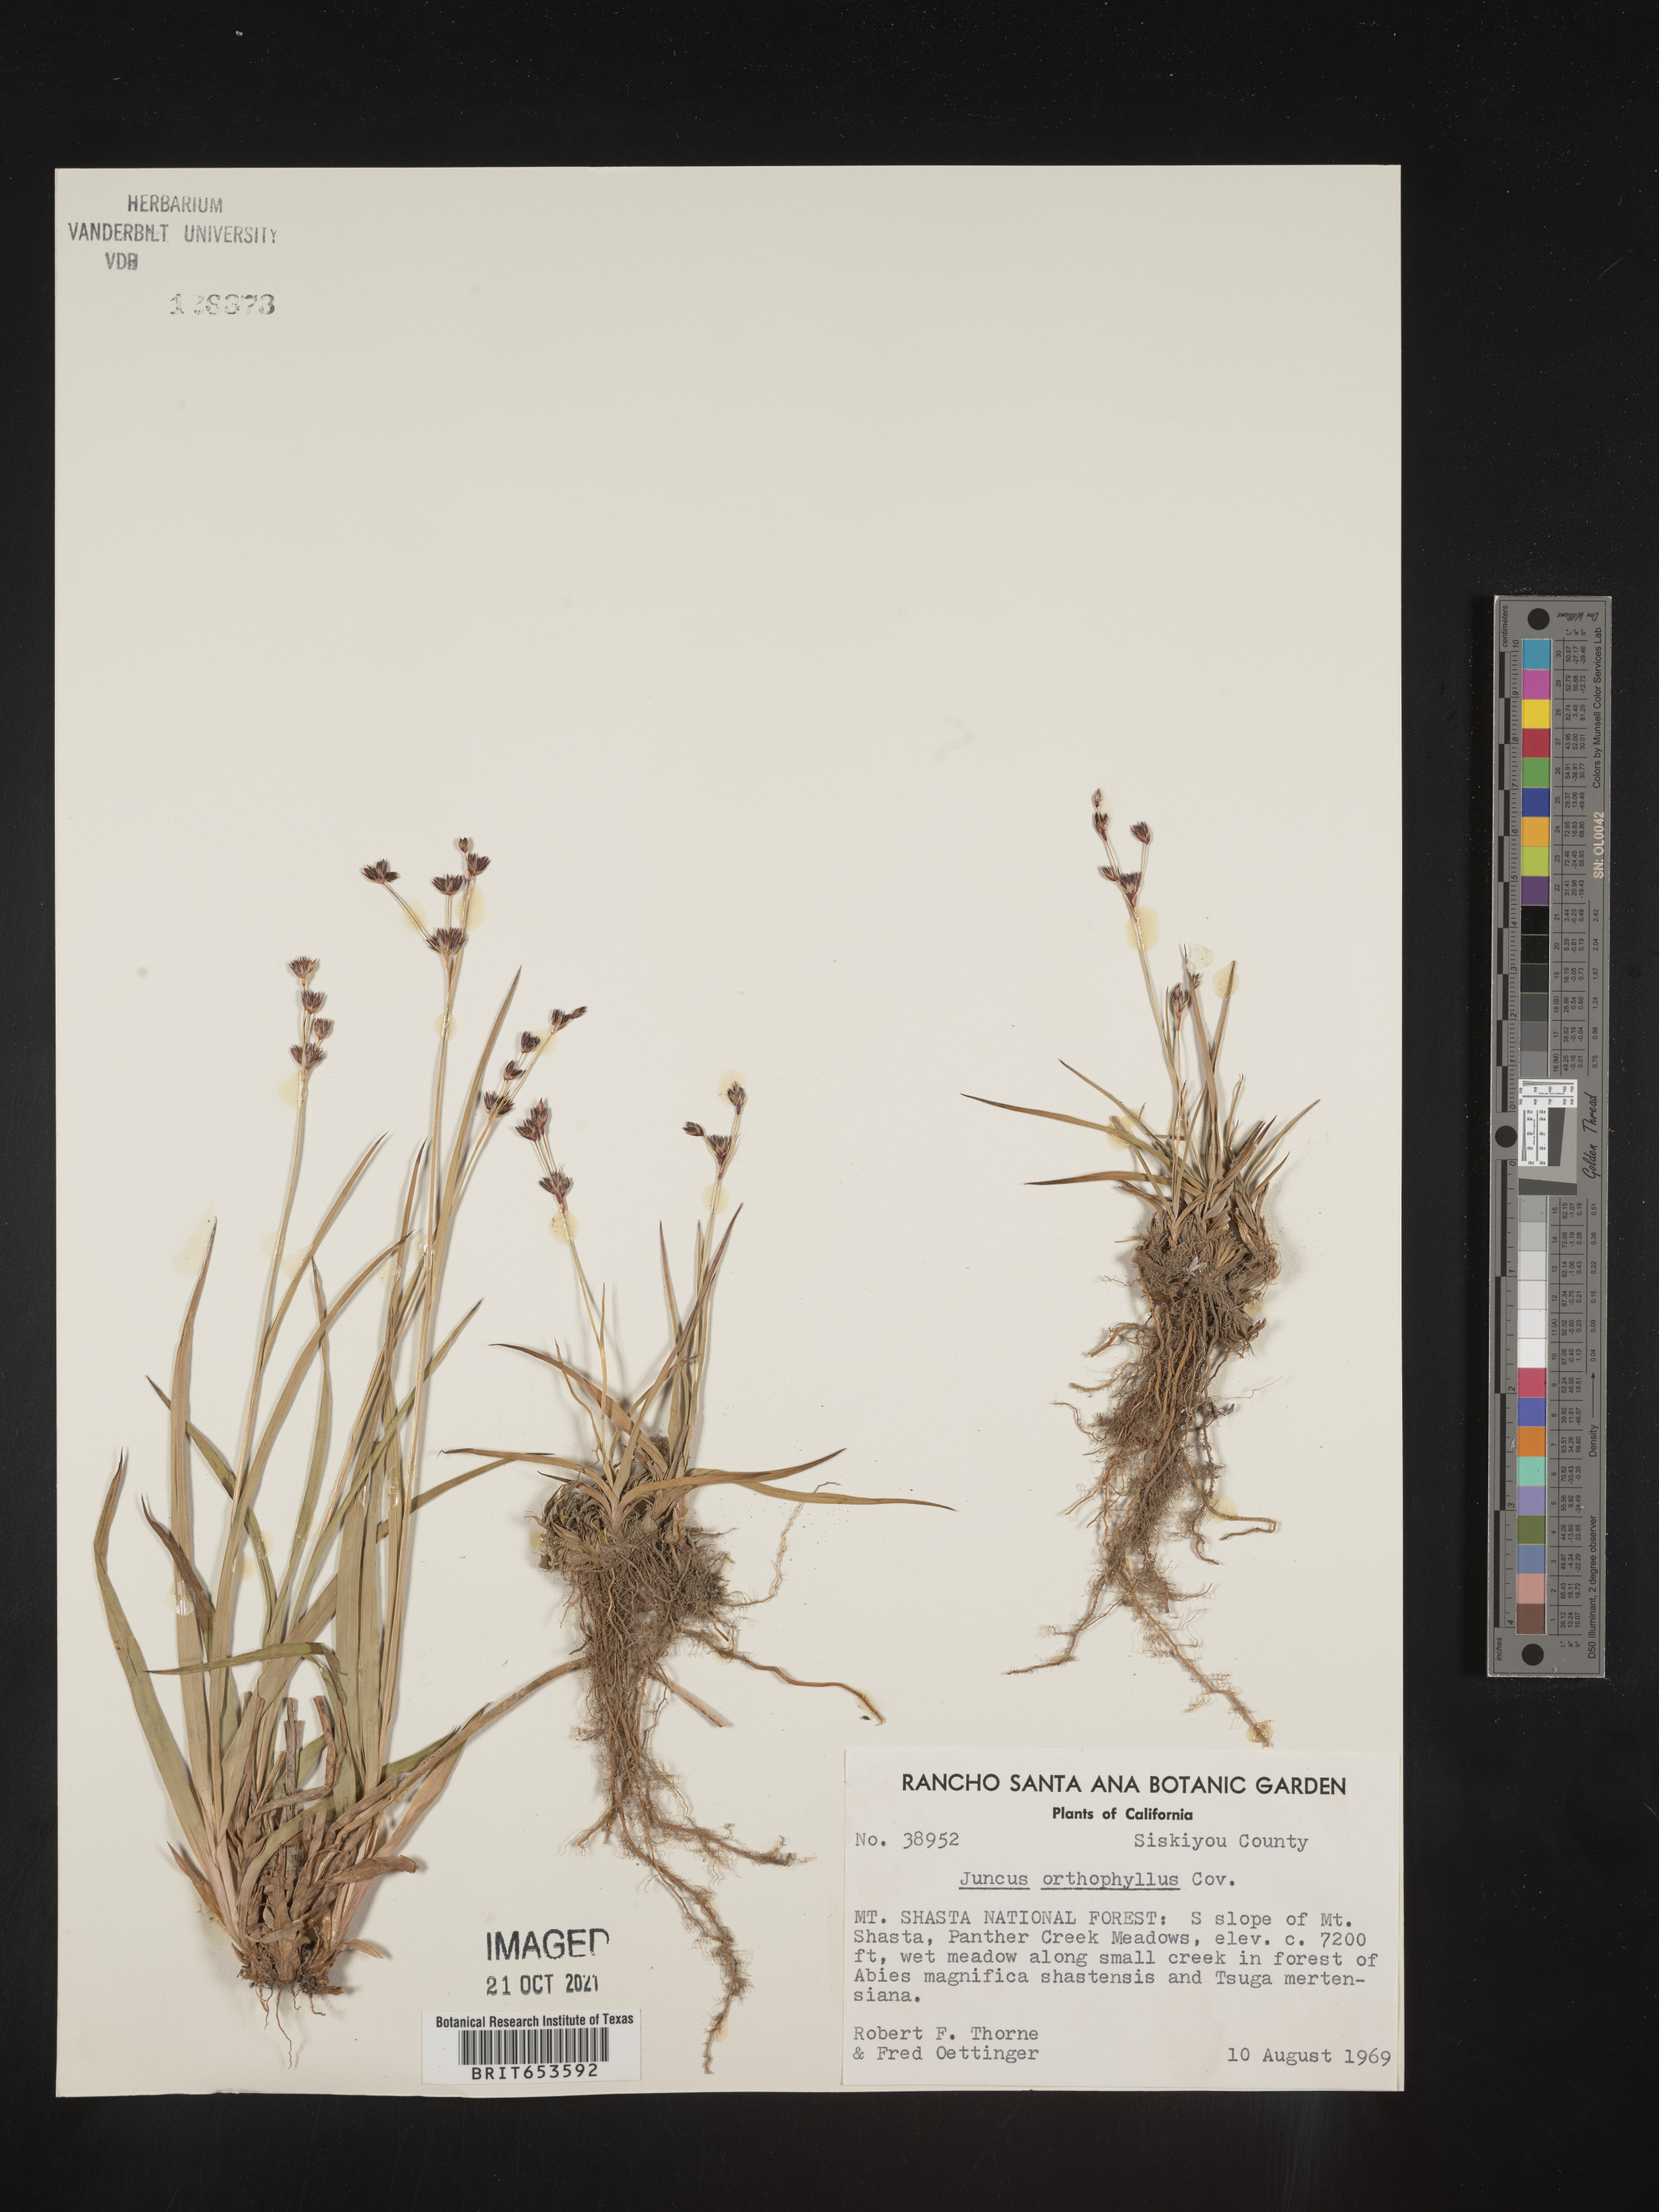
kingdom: Plantae
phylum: Tracheophyta
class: Liliopsida
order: Poales
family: Juncaceae
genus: Juncus
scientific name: Juncus orthophyllus
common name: Straight-leaf rush
